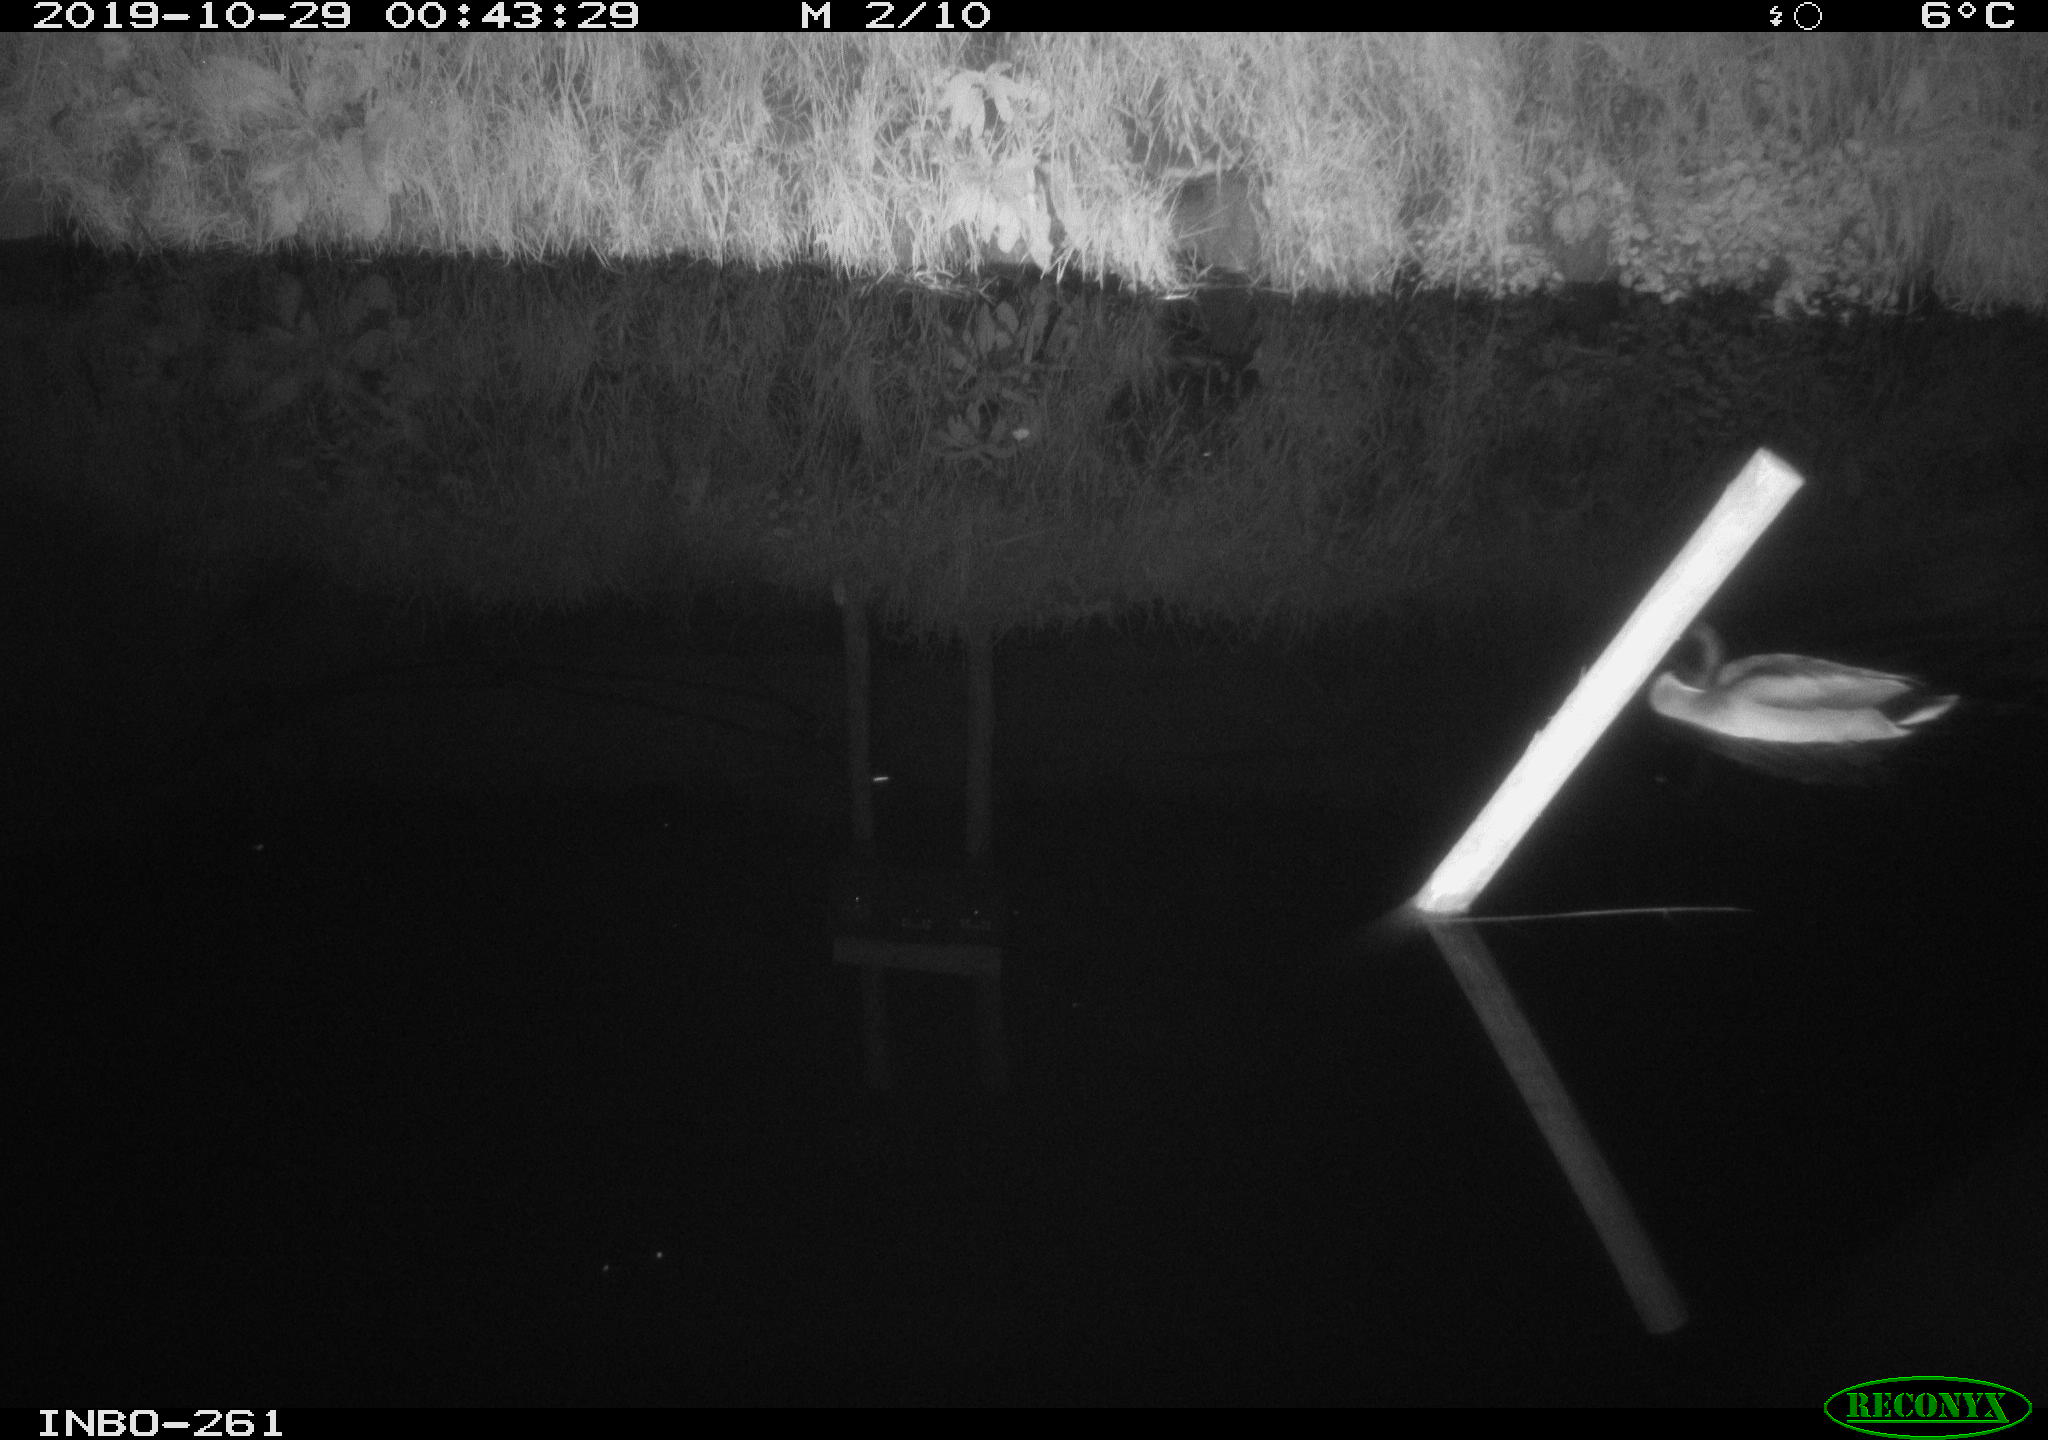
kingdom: Animalia
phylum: Chordata
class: Aves
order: Anseriformes
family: Anatidae
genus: Anas
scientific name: Anas platyrhynchos
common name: Mallard
